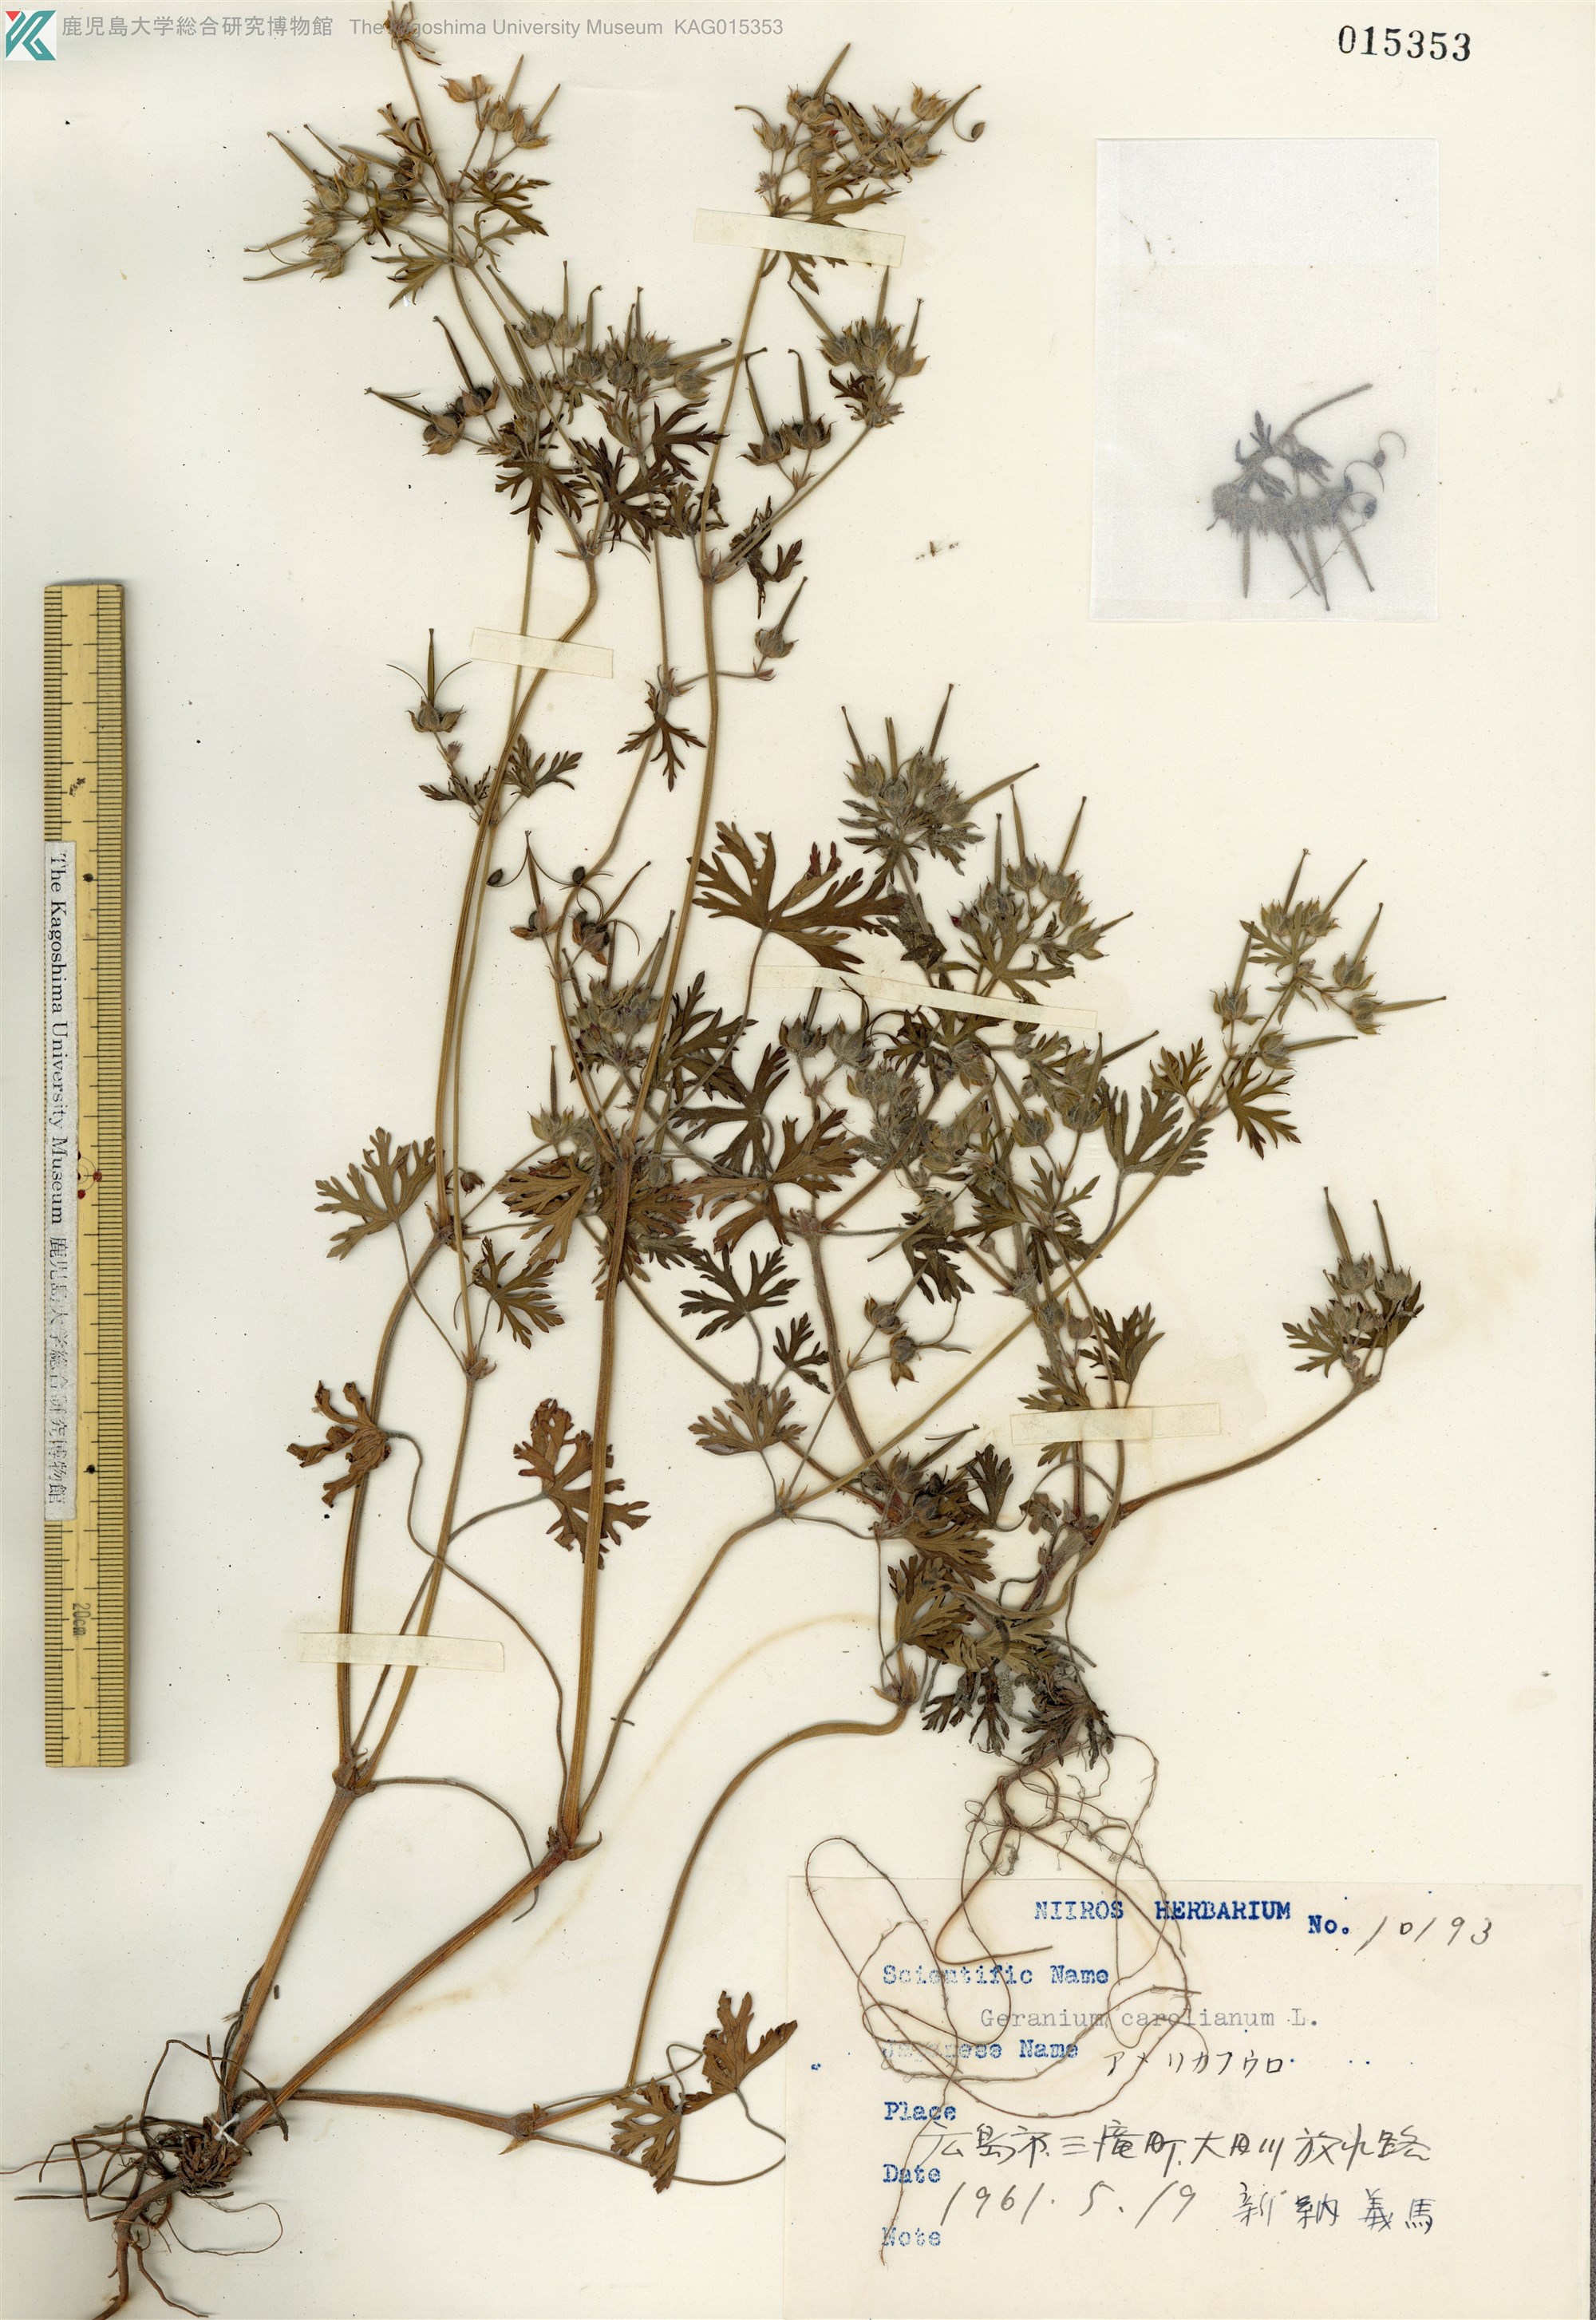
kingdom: Plantae
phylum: Tracheophyta
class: Magnoliopsida
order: Geraniales
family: Geraniaceae
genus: Geranium
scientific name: Geranium carolinianum
